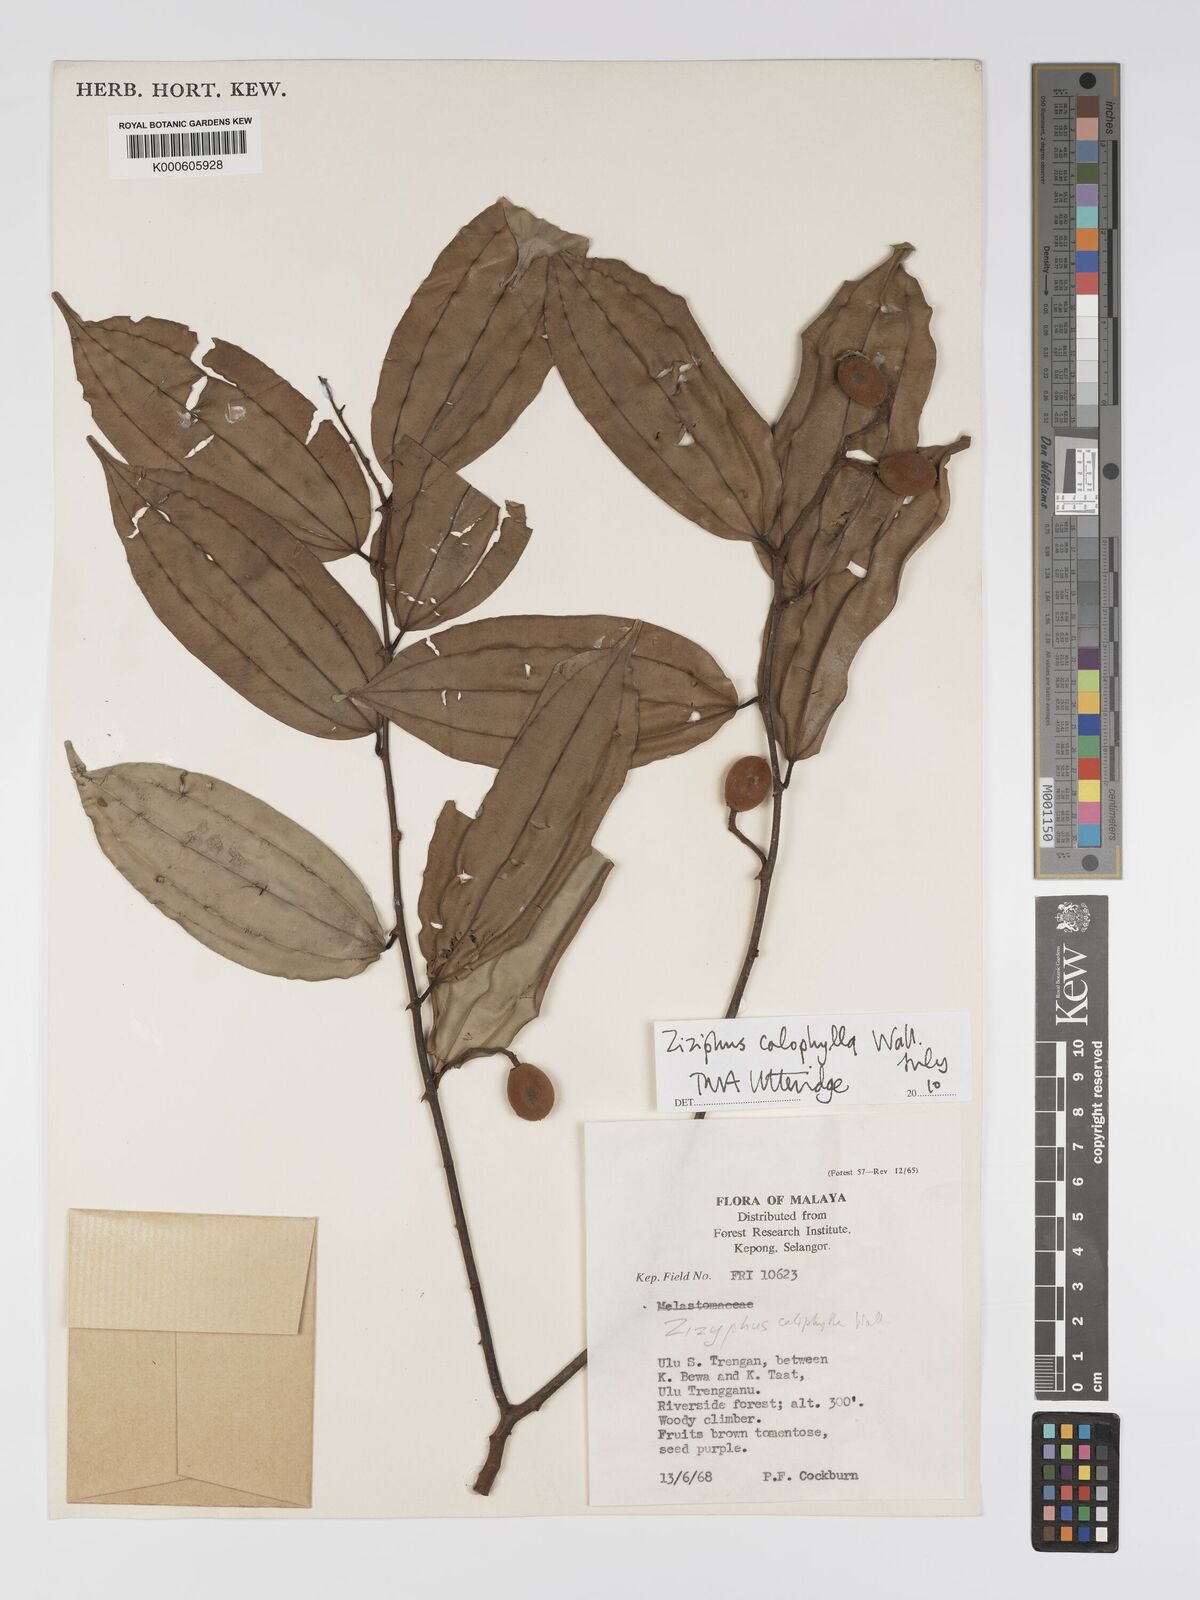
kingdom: Plantae
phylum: Tracheophyta
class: Magnoliopsida
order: Rosales
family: Rhamnaceae
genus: Ziziphus
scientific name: Ziziphus calophylla
